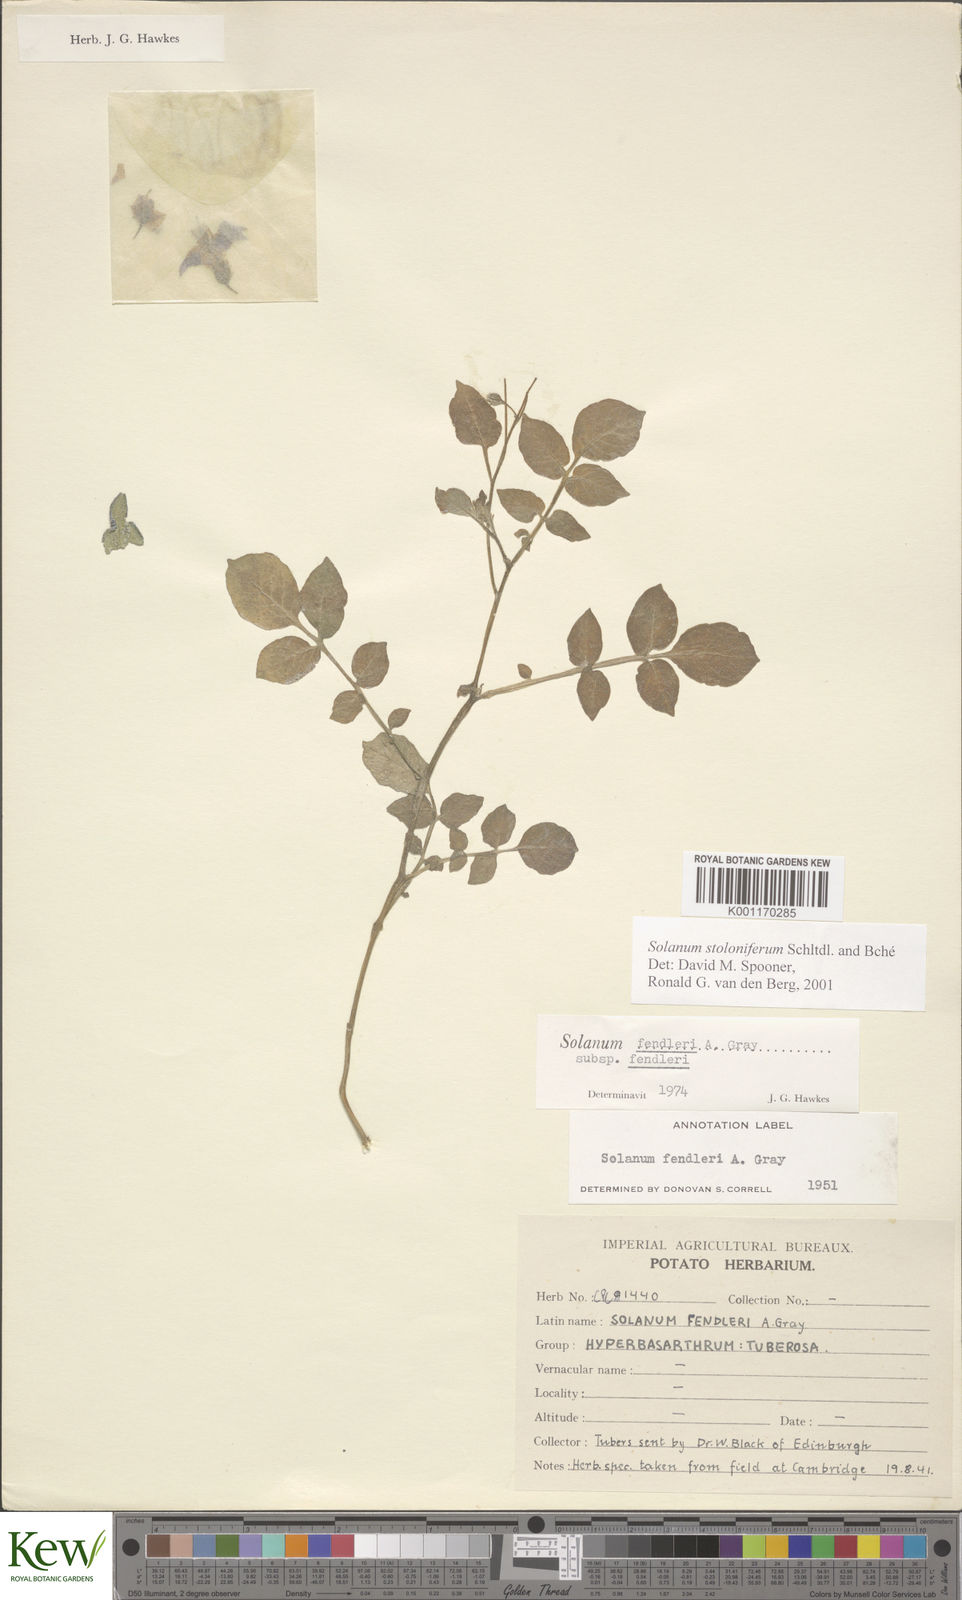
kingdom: Plantae
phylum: Tracheophyta
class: Magnoliopsida
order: Solanales
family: Solanaceae
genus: Solanum
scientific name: Solanum stoloniferum
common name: Fendler's nighshade
